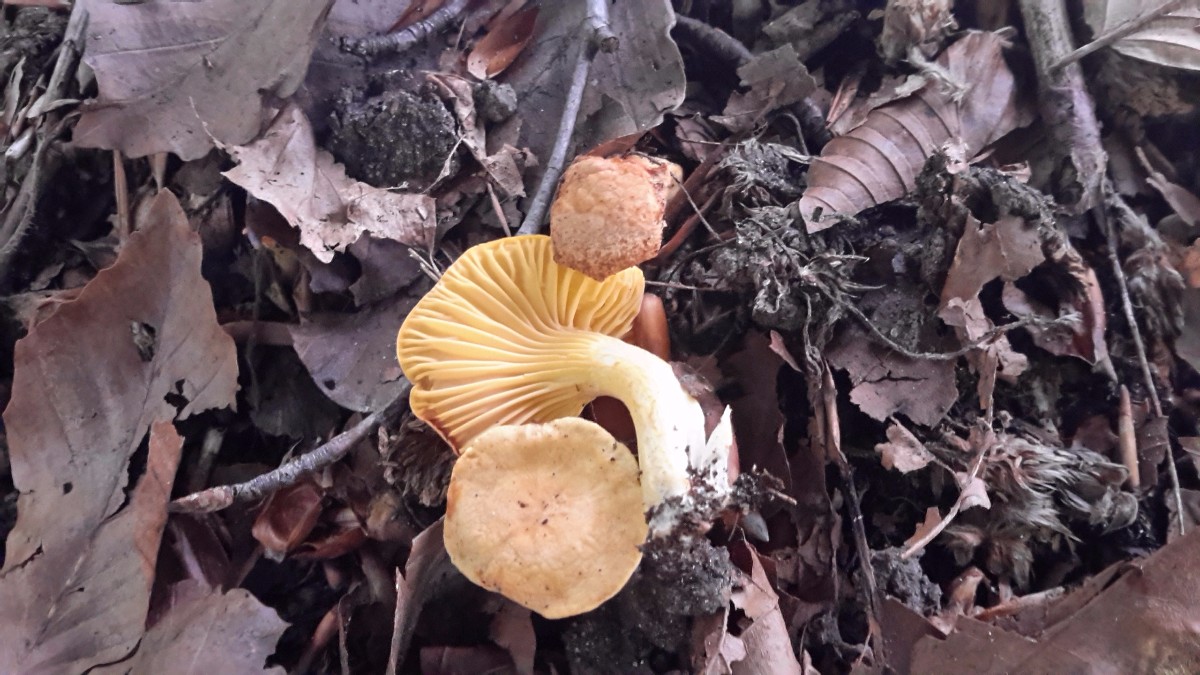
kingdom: Fungi
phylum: Basidiomycota
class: Agaricomycetes
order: Cantharellales
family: Hydnaceae
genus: Cantharellus
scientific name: Cantharellus cibarius
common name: almindelig kantarel
